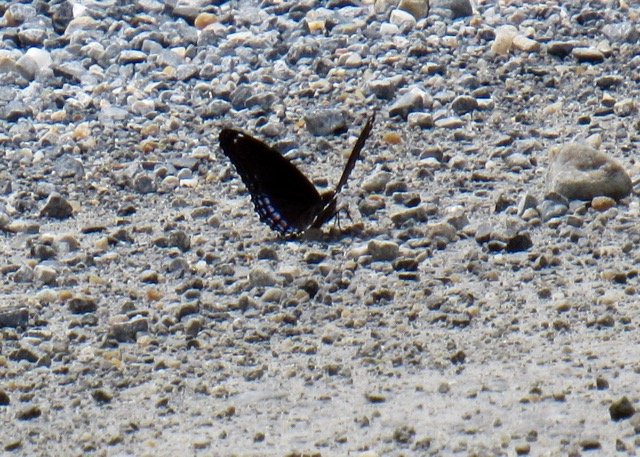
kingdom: Animalia
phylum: Arthropoda
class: Insecta
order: Lepidoptera
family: Nymphalidae
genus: Limenitis
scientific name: Limenitis
